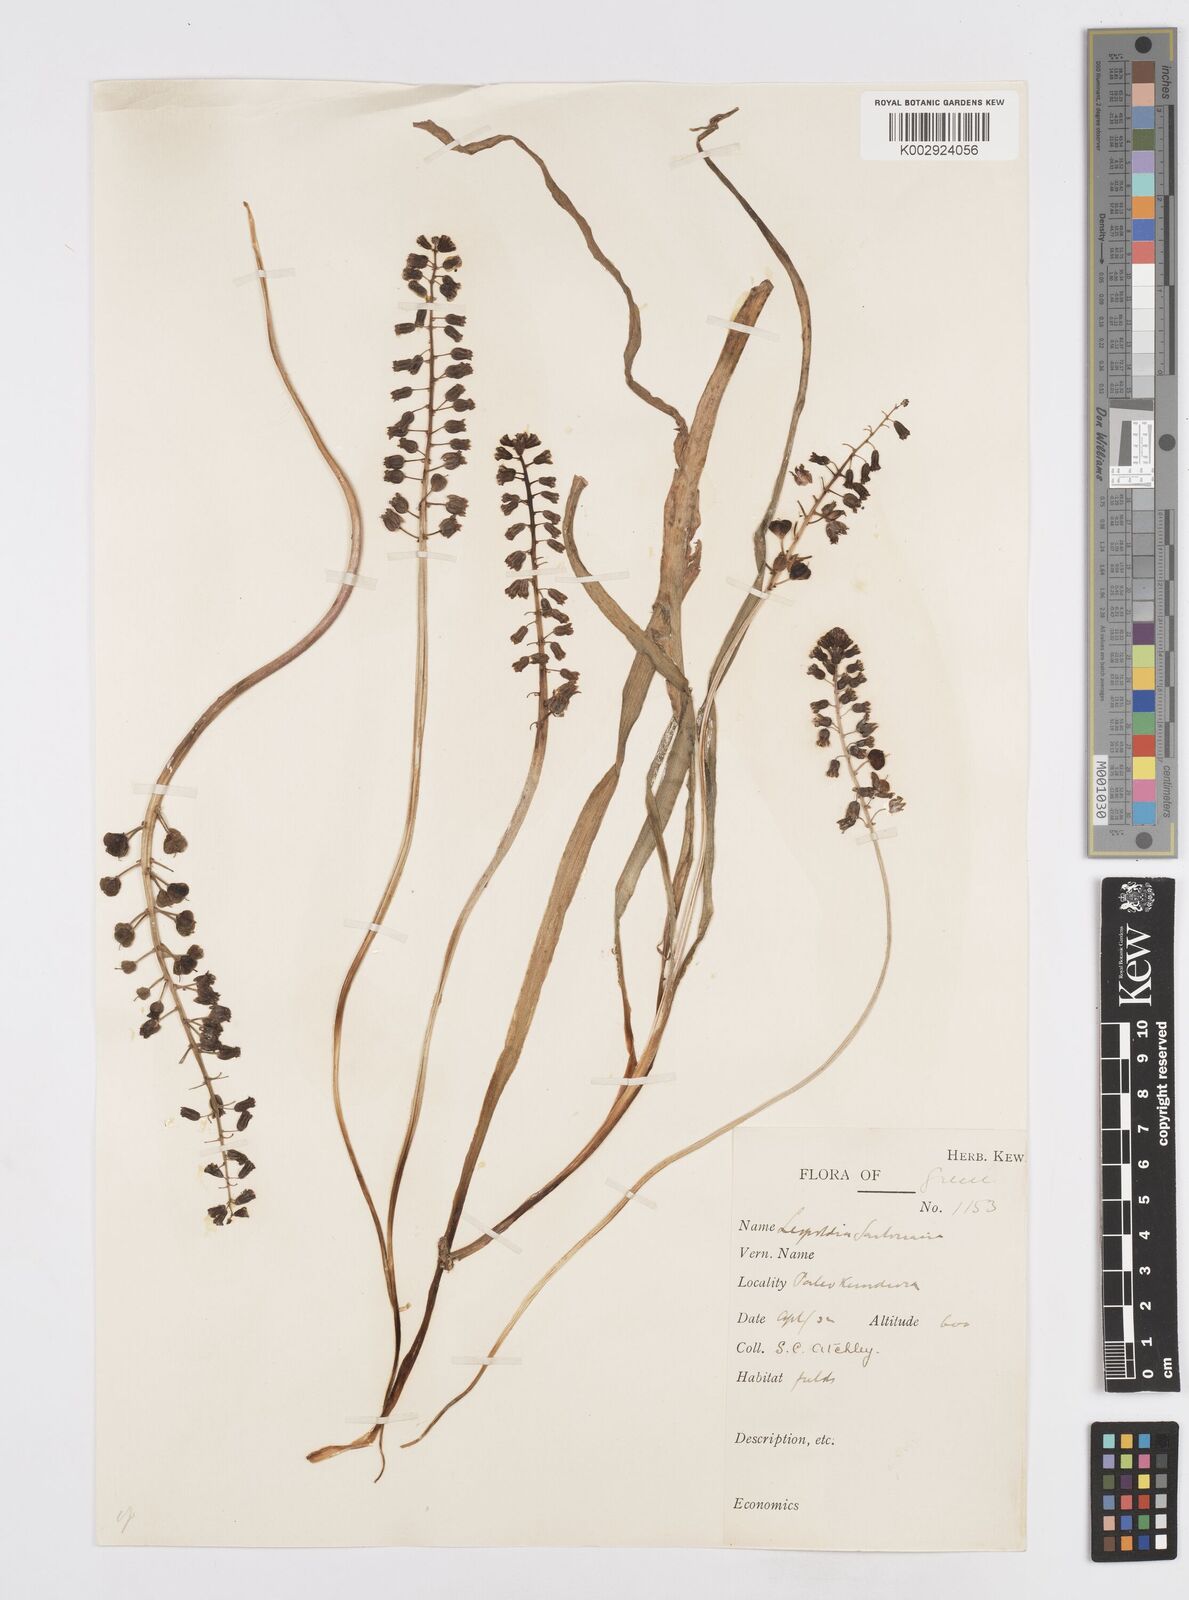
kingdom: Plantae
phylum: Tracheophyta
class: Liliopsida
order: Asparagales
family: Asparagaceae
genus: Bellevalia
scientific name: Bellevalia dubia
